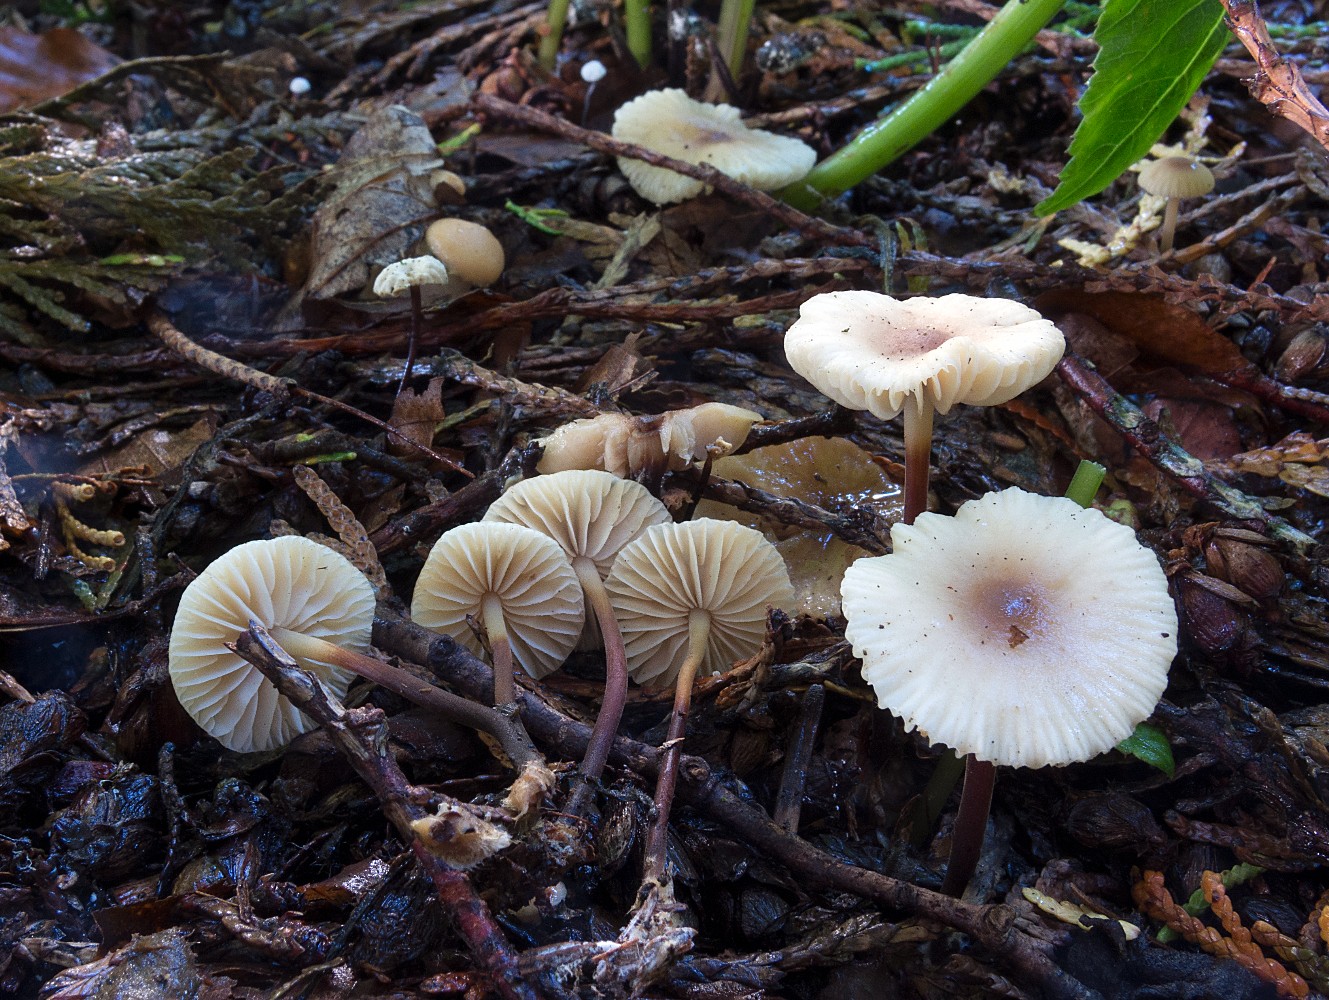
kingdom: Fungi
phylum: Basidiomycota
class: Agaricomycetes
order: Agaricales
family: Marasmiaceae
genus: Marasmius
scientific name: Marasmius torquescens
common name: filtfodet bruskhat
